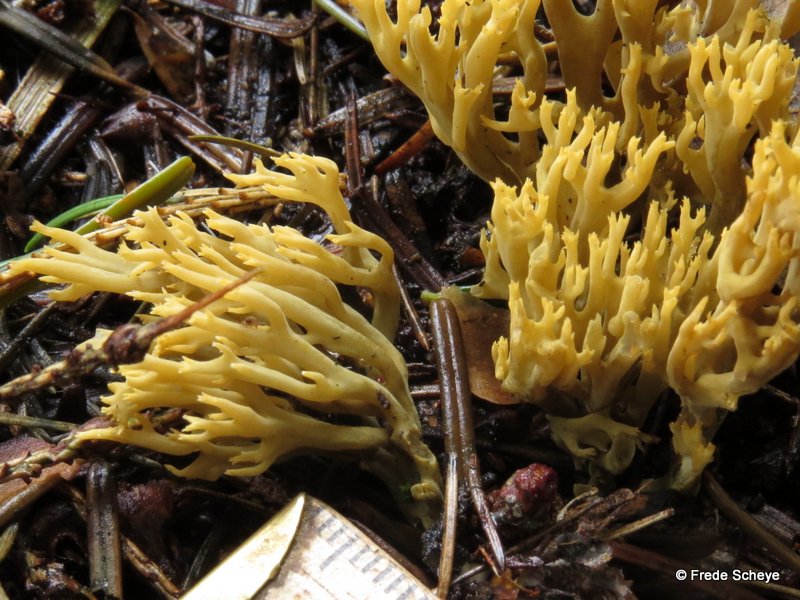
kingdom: Fungi
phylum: Basidiomycota
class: Agaricomycetes
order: Gomphales
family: Gomphaceae
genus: Phaeoclavulina
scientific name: Phaeoclavulina abietina
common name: gulgrøn koralsvamp
